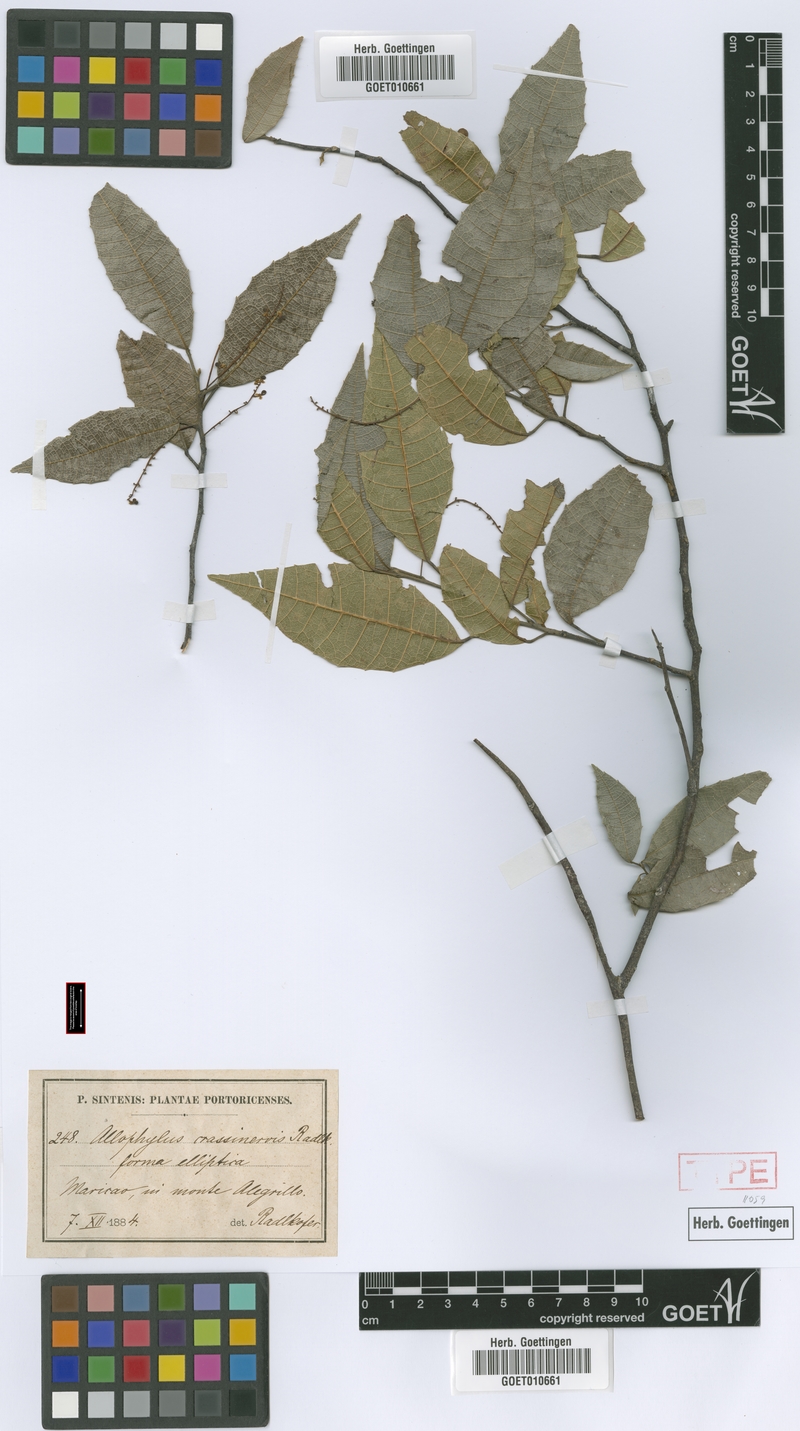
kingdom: Plantae
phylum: Tracheophyta
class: Magnoliopsida
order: Sapindales
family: Sapindaceae
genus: Allophylus
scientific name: Allophylus crassinervis
